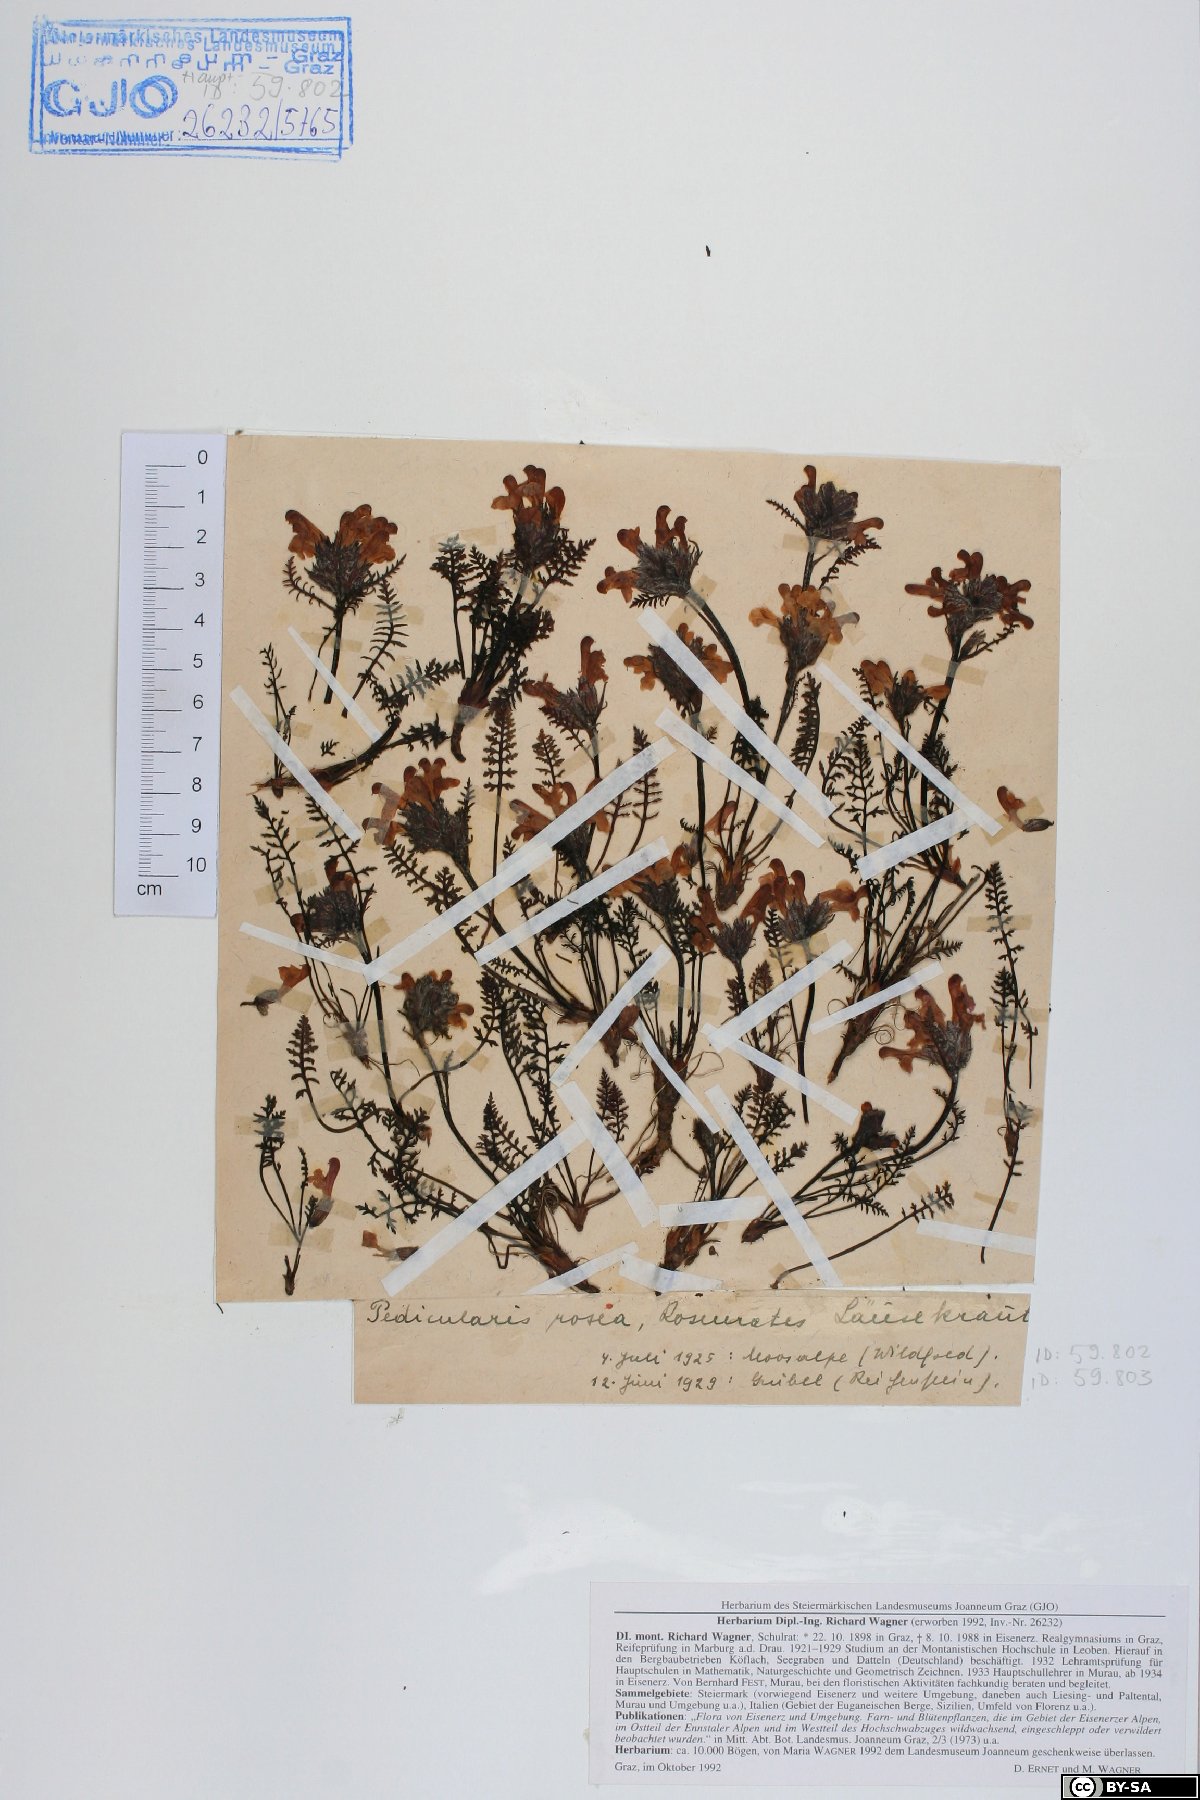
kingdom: Plantae
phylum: Tracheophyta
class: Magnoliopsida
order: Lamiales
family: Orobanchaceae
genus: Pedicularis
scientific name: Pedicularis rosea
